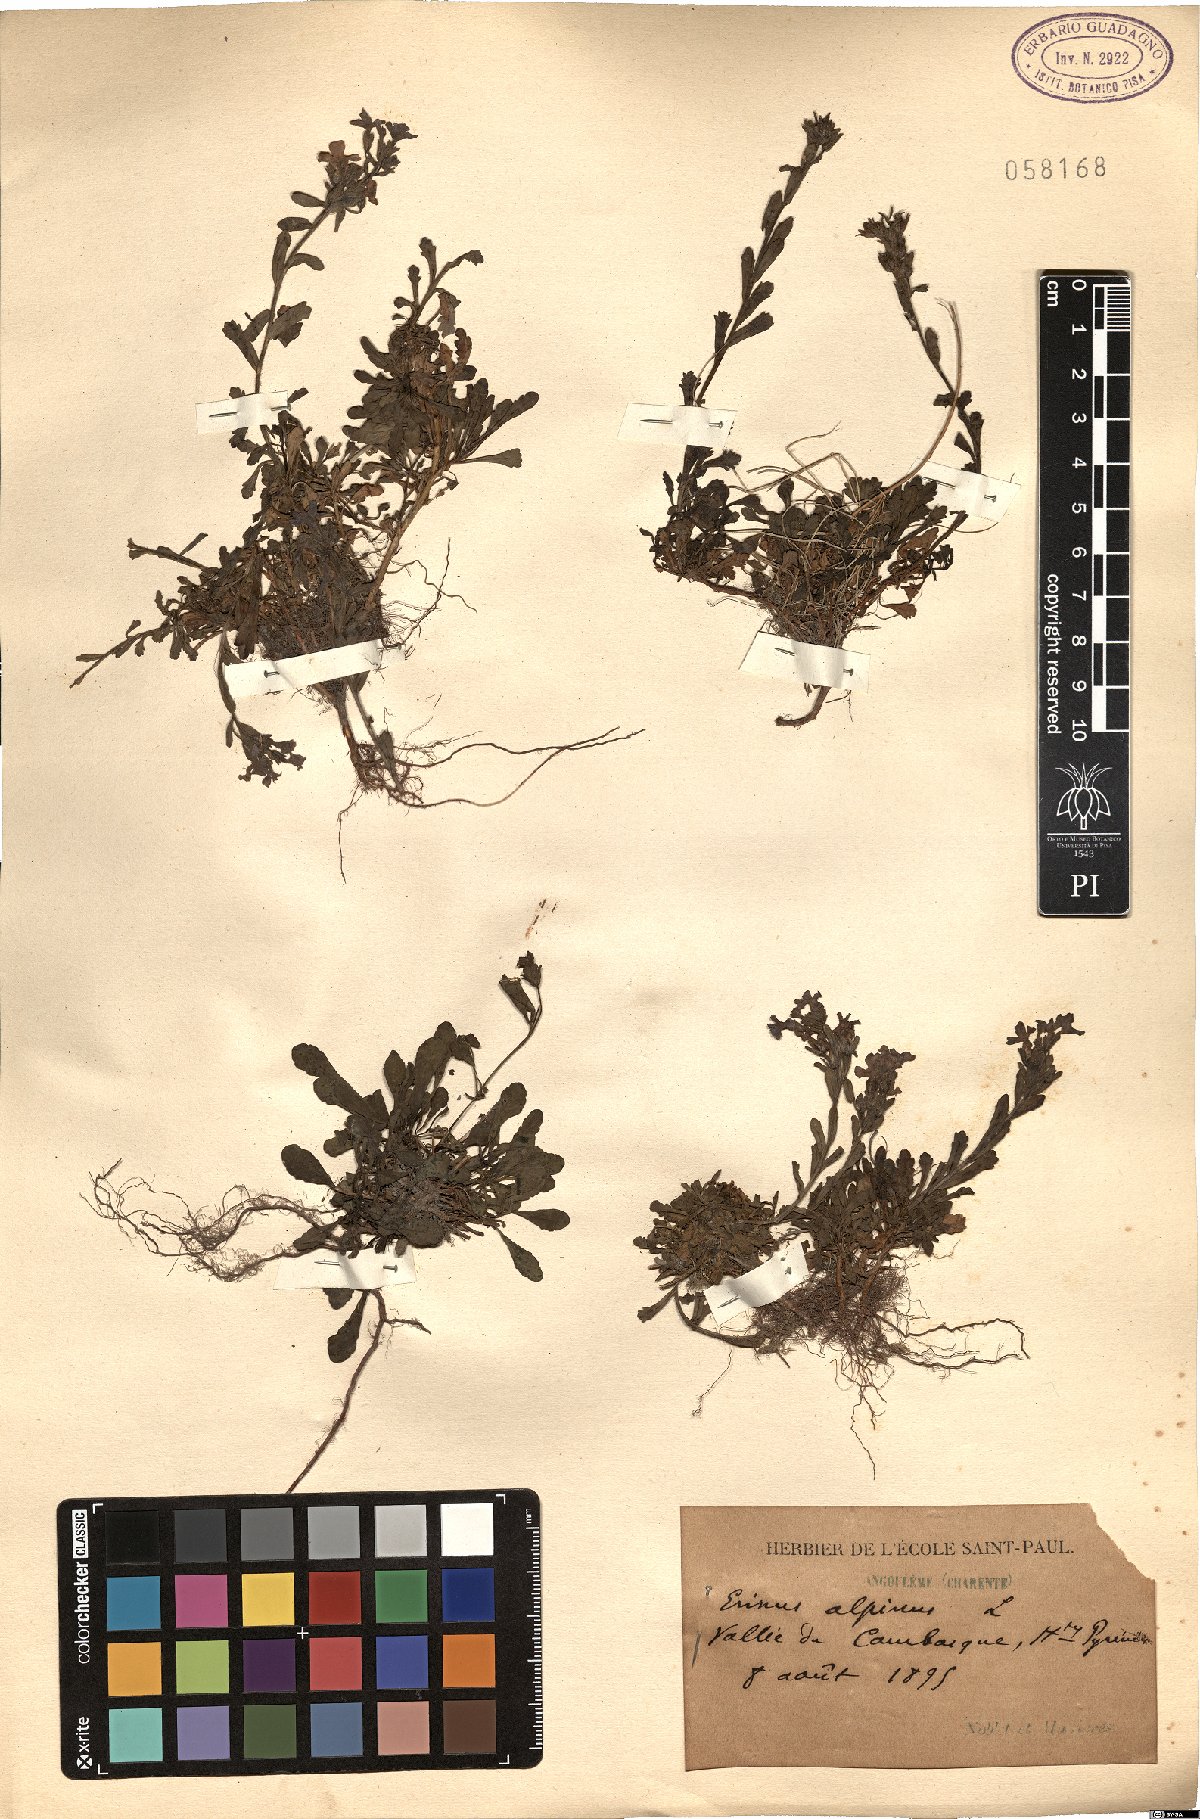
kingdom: Plantae
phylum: Tracheophyta
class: Magnoliopsida
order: Lamiales
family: Plantaginaceae
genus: Erinus
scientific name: Erinus alpinus
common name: Fairy foxglove
